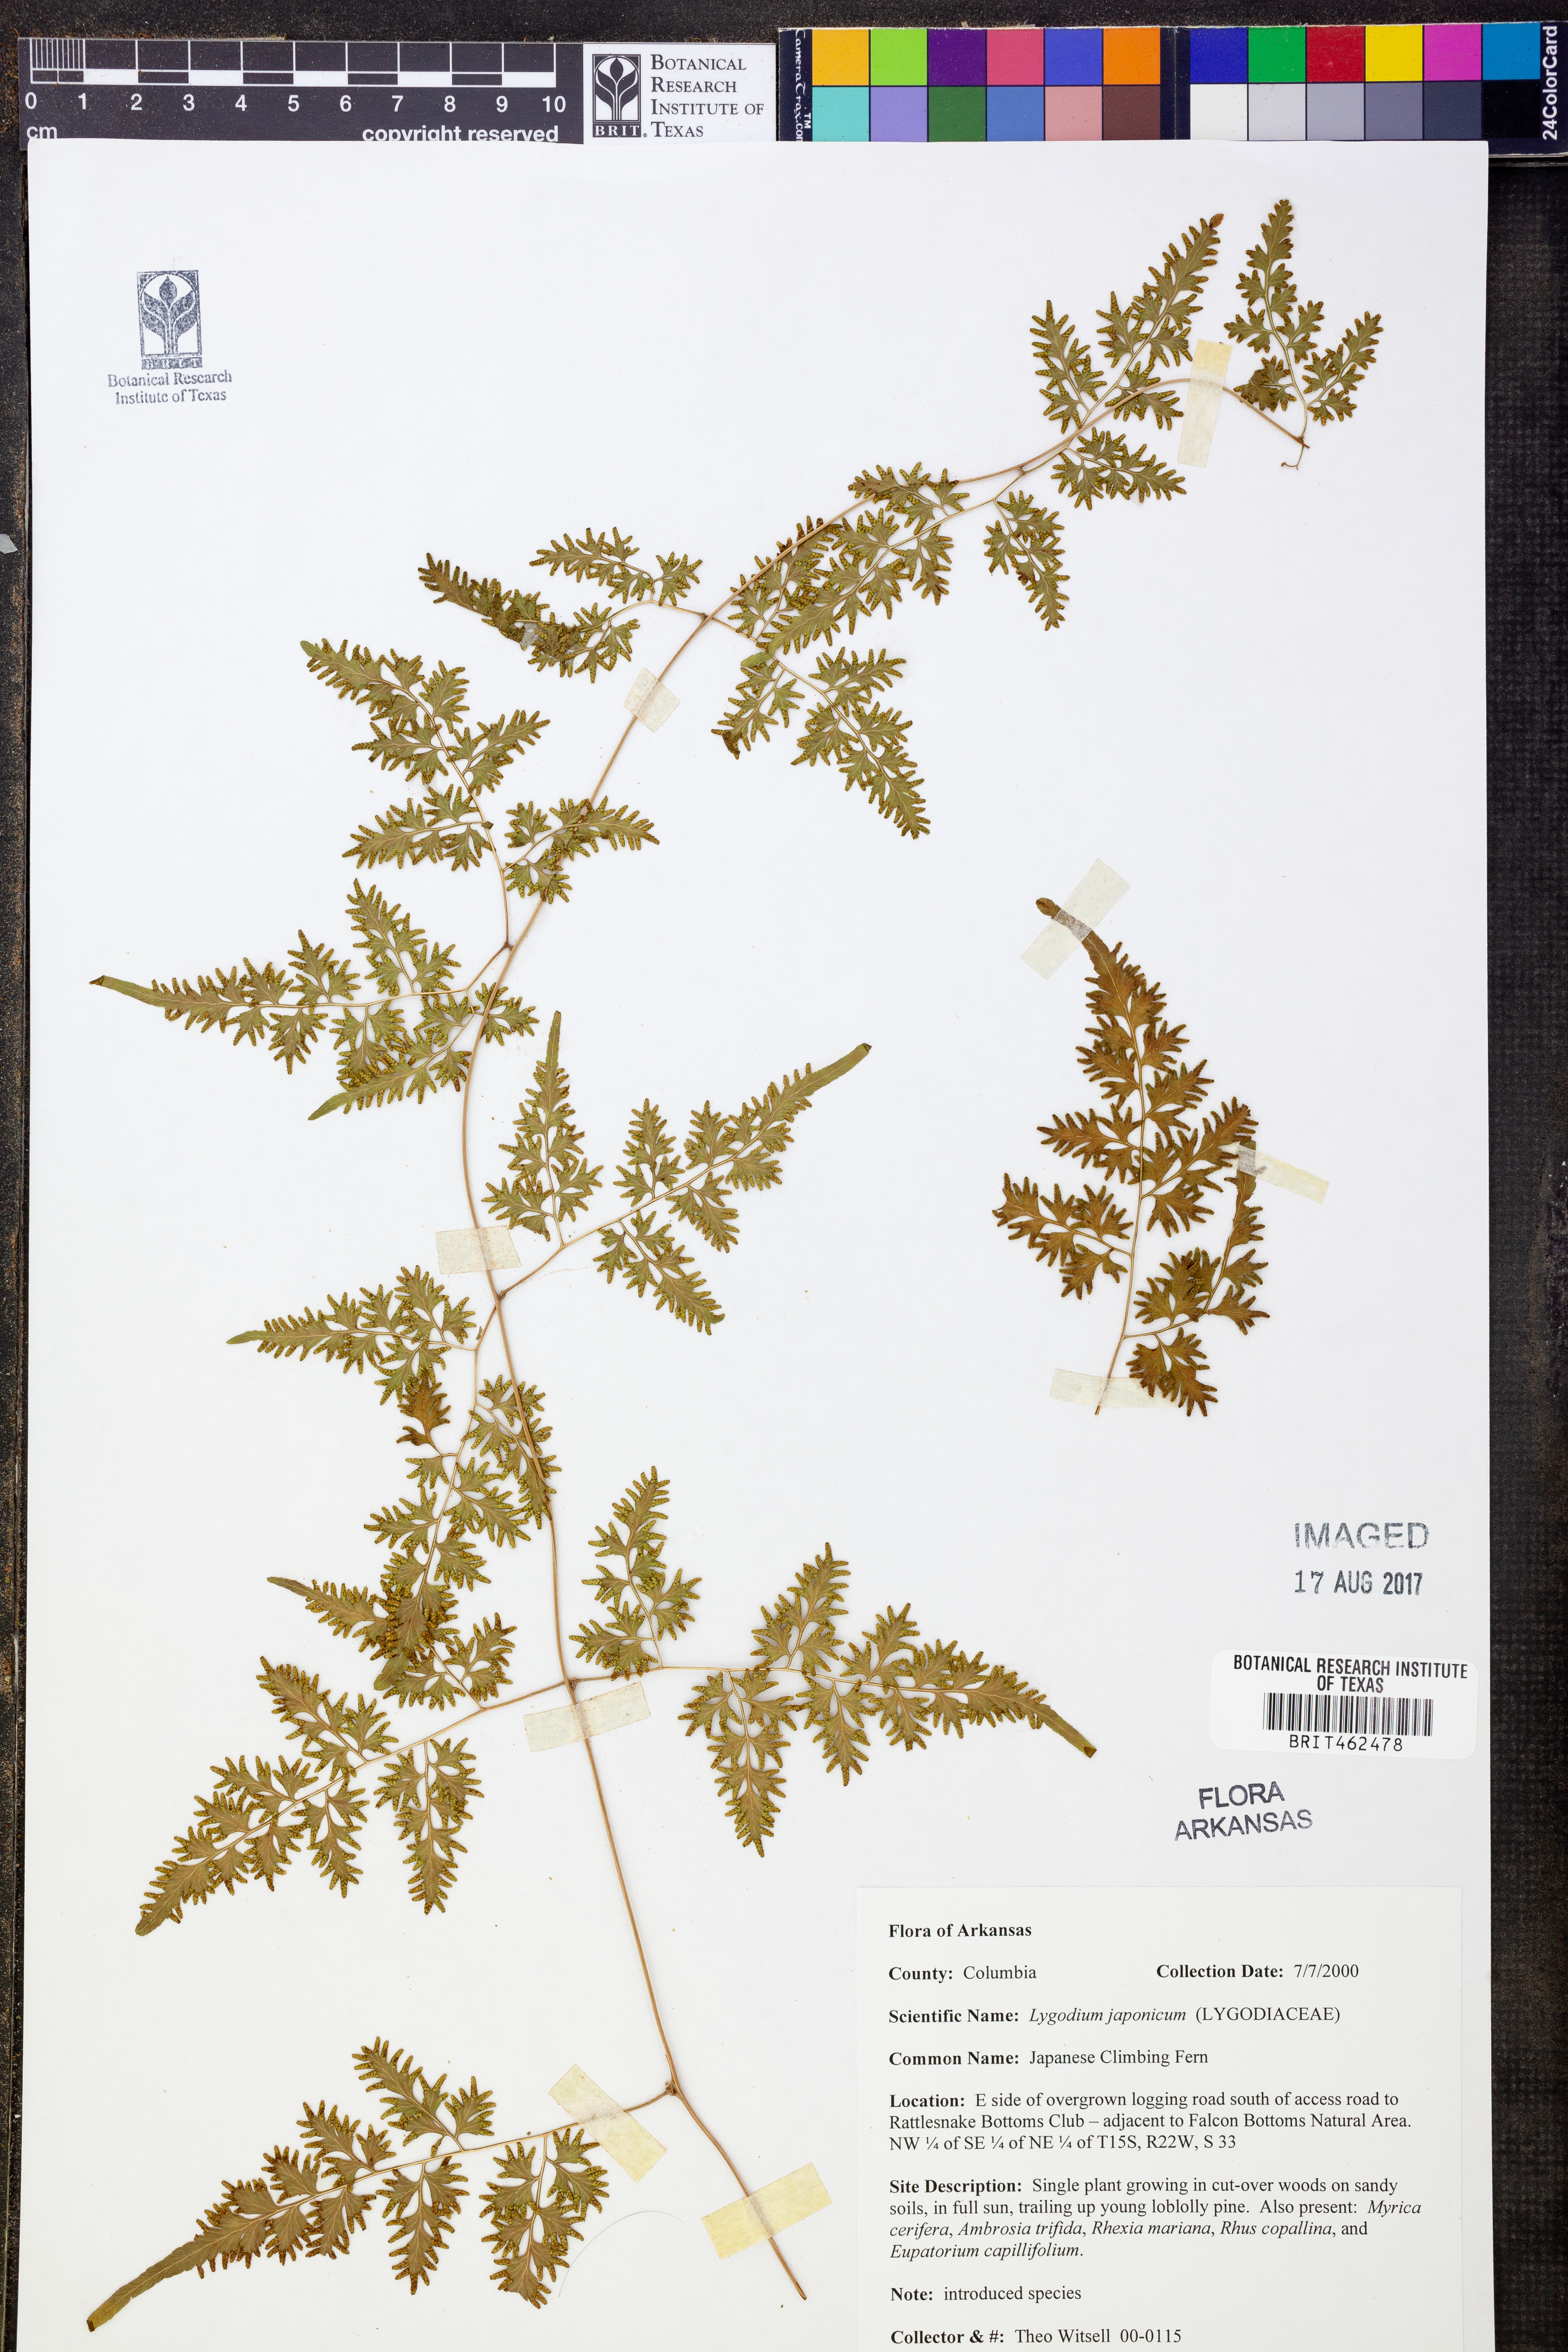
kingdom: Plantae
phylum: Tracheophyta
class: Polypodiopsida
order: Schizaeales
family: Lygodiaceae
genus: Lygodium
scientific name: Lygodium japonicum
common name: Japanese climbing fern
